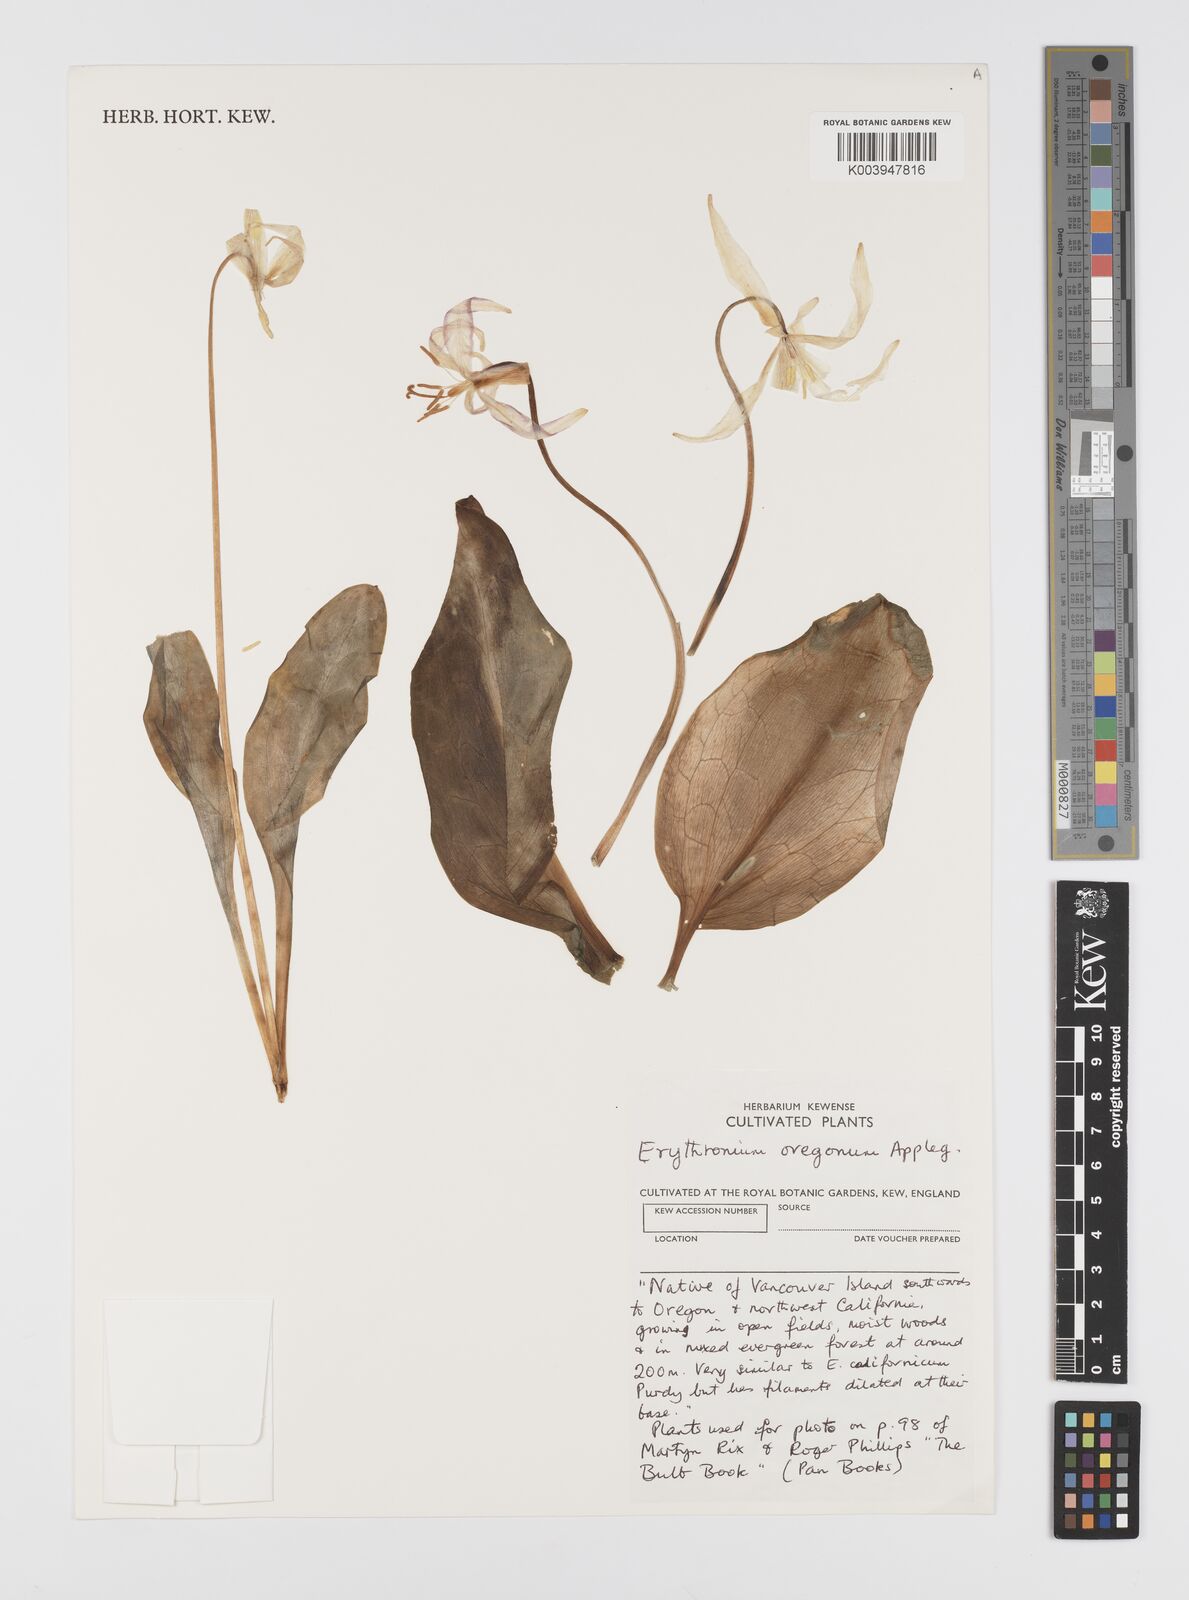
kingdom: Plantae
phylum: Tracheophyta
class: Liliopsida
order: Liliales
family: Liliaceae
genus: Erythronium
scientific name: Erythronium oregonum
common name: Giant adder's-tongue
